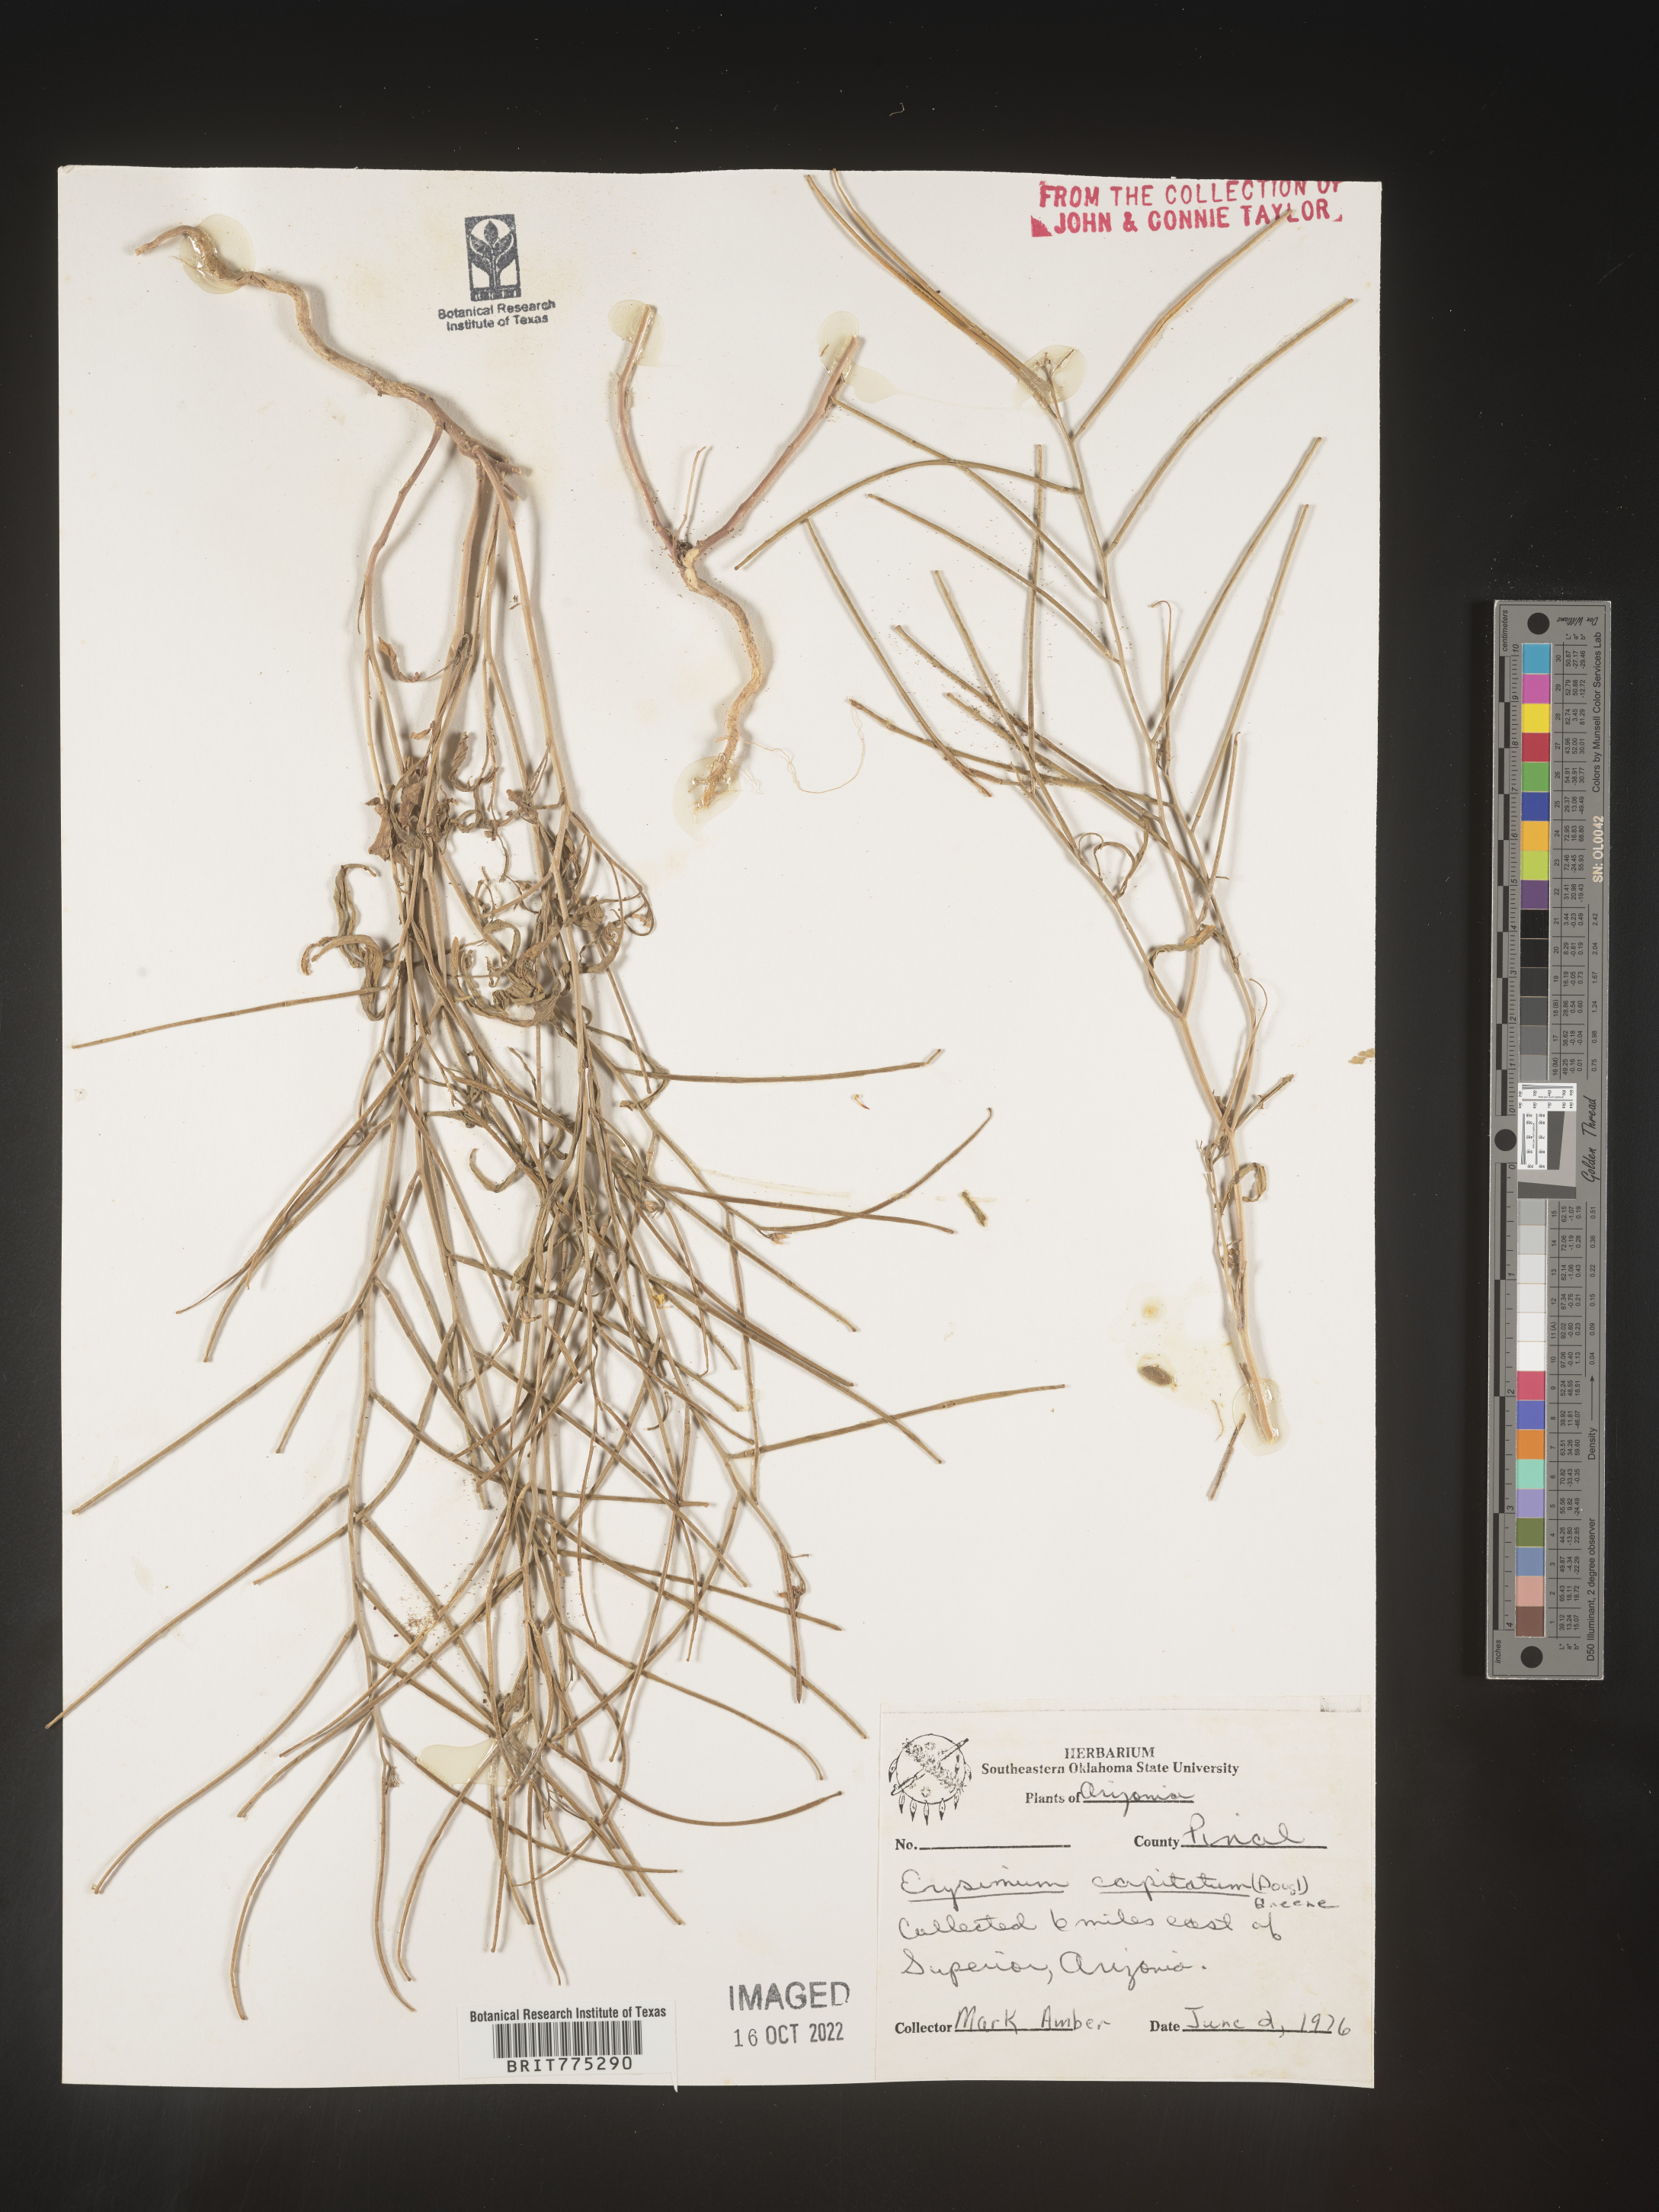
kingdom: Plantae
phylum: Tracheophyta
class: Magnoliopsida
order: Brassicales
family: Brassicaceae
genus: Erysimum
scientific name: Erysimum capitatum
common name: Western wallflower
